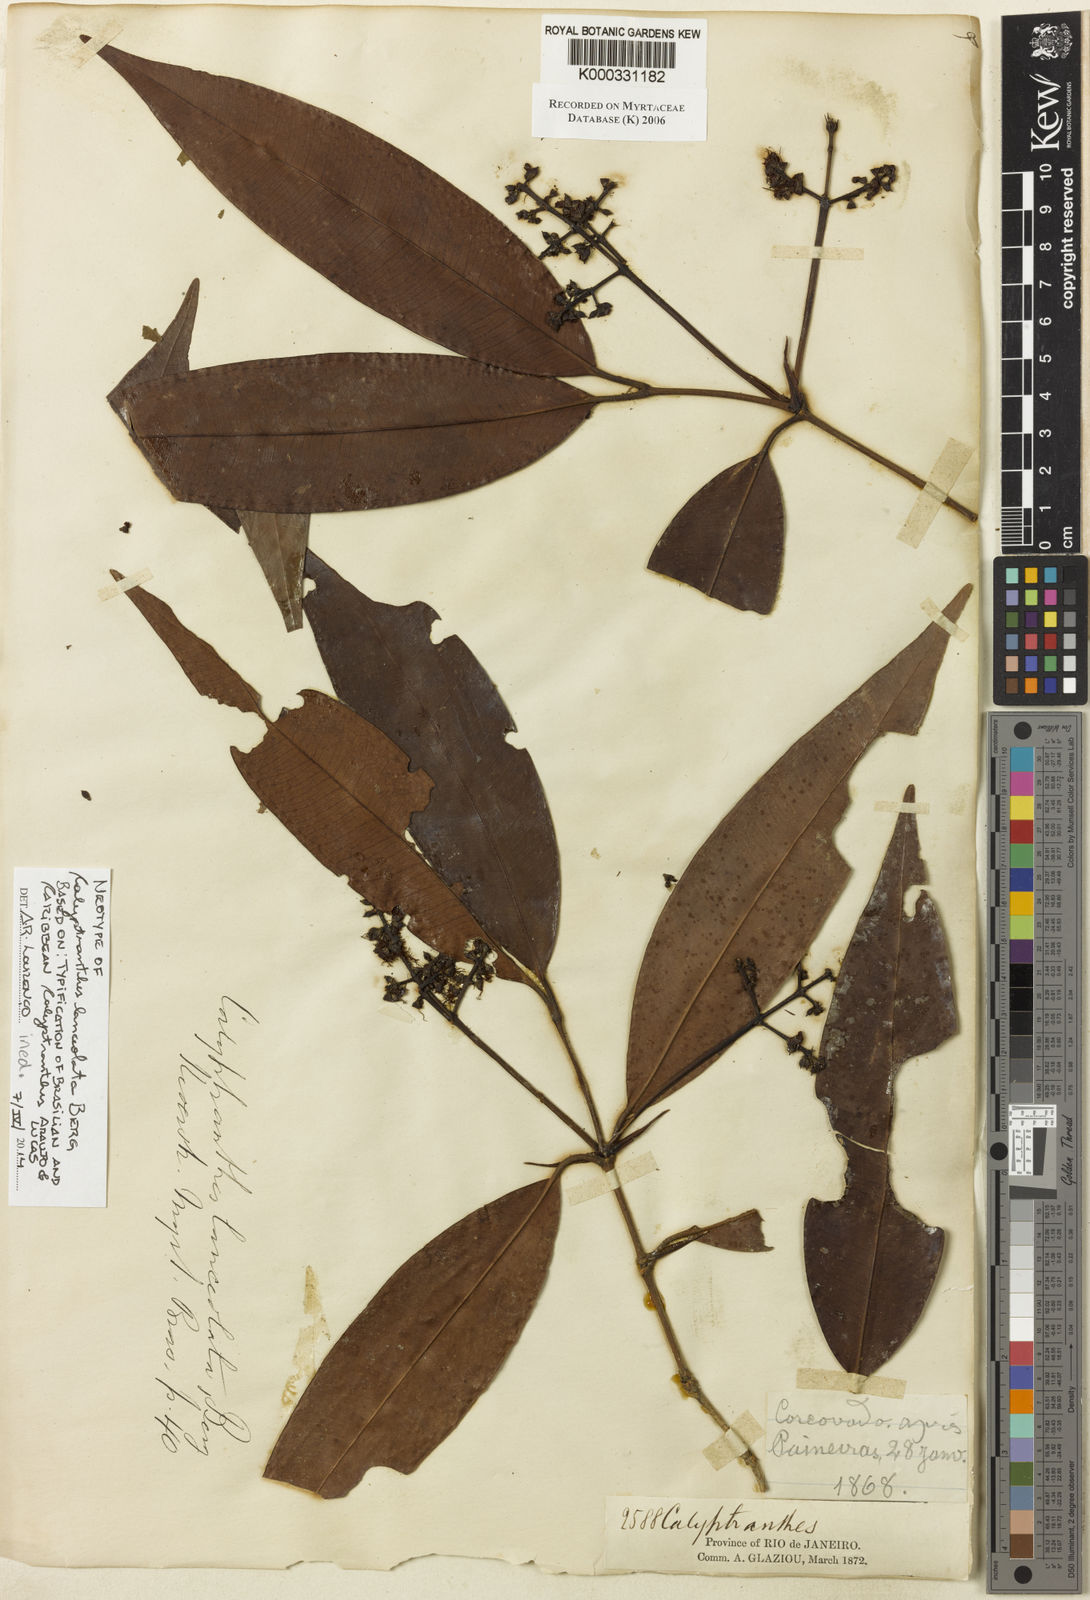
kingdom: Plantae
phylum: Tracheophyta
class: Magnoliopsida
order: Myrtales
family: Myrtaceae
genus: Myrcia
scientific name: Myrcia lonchophylla
